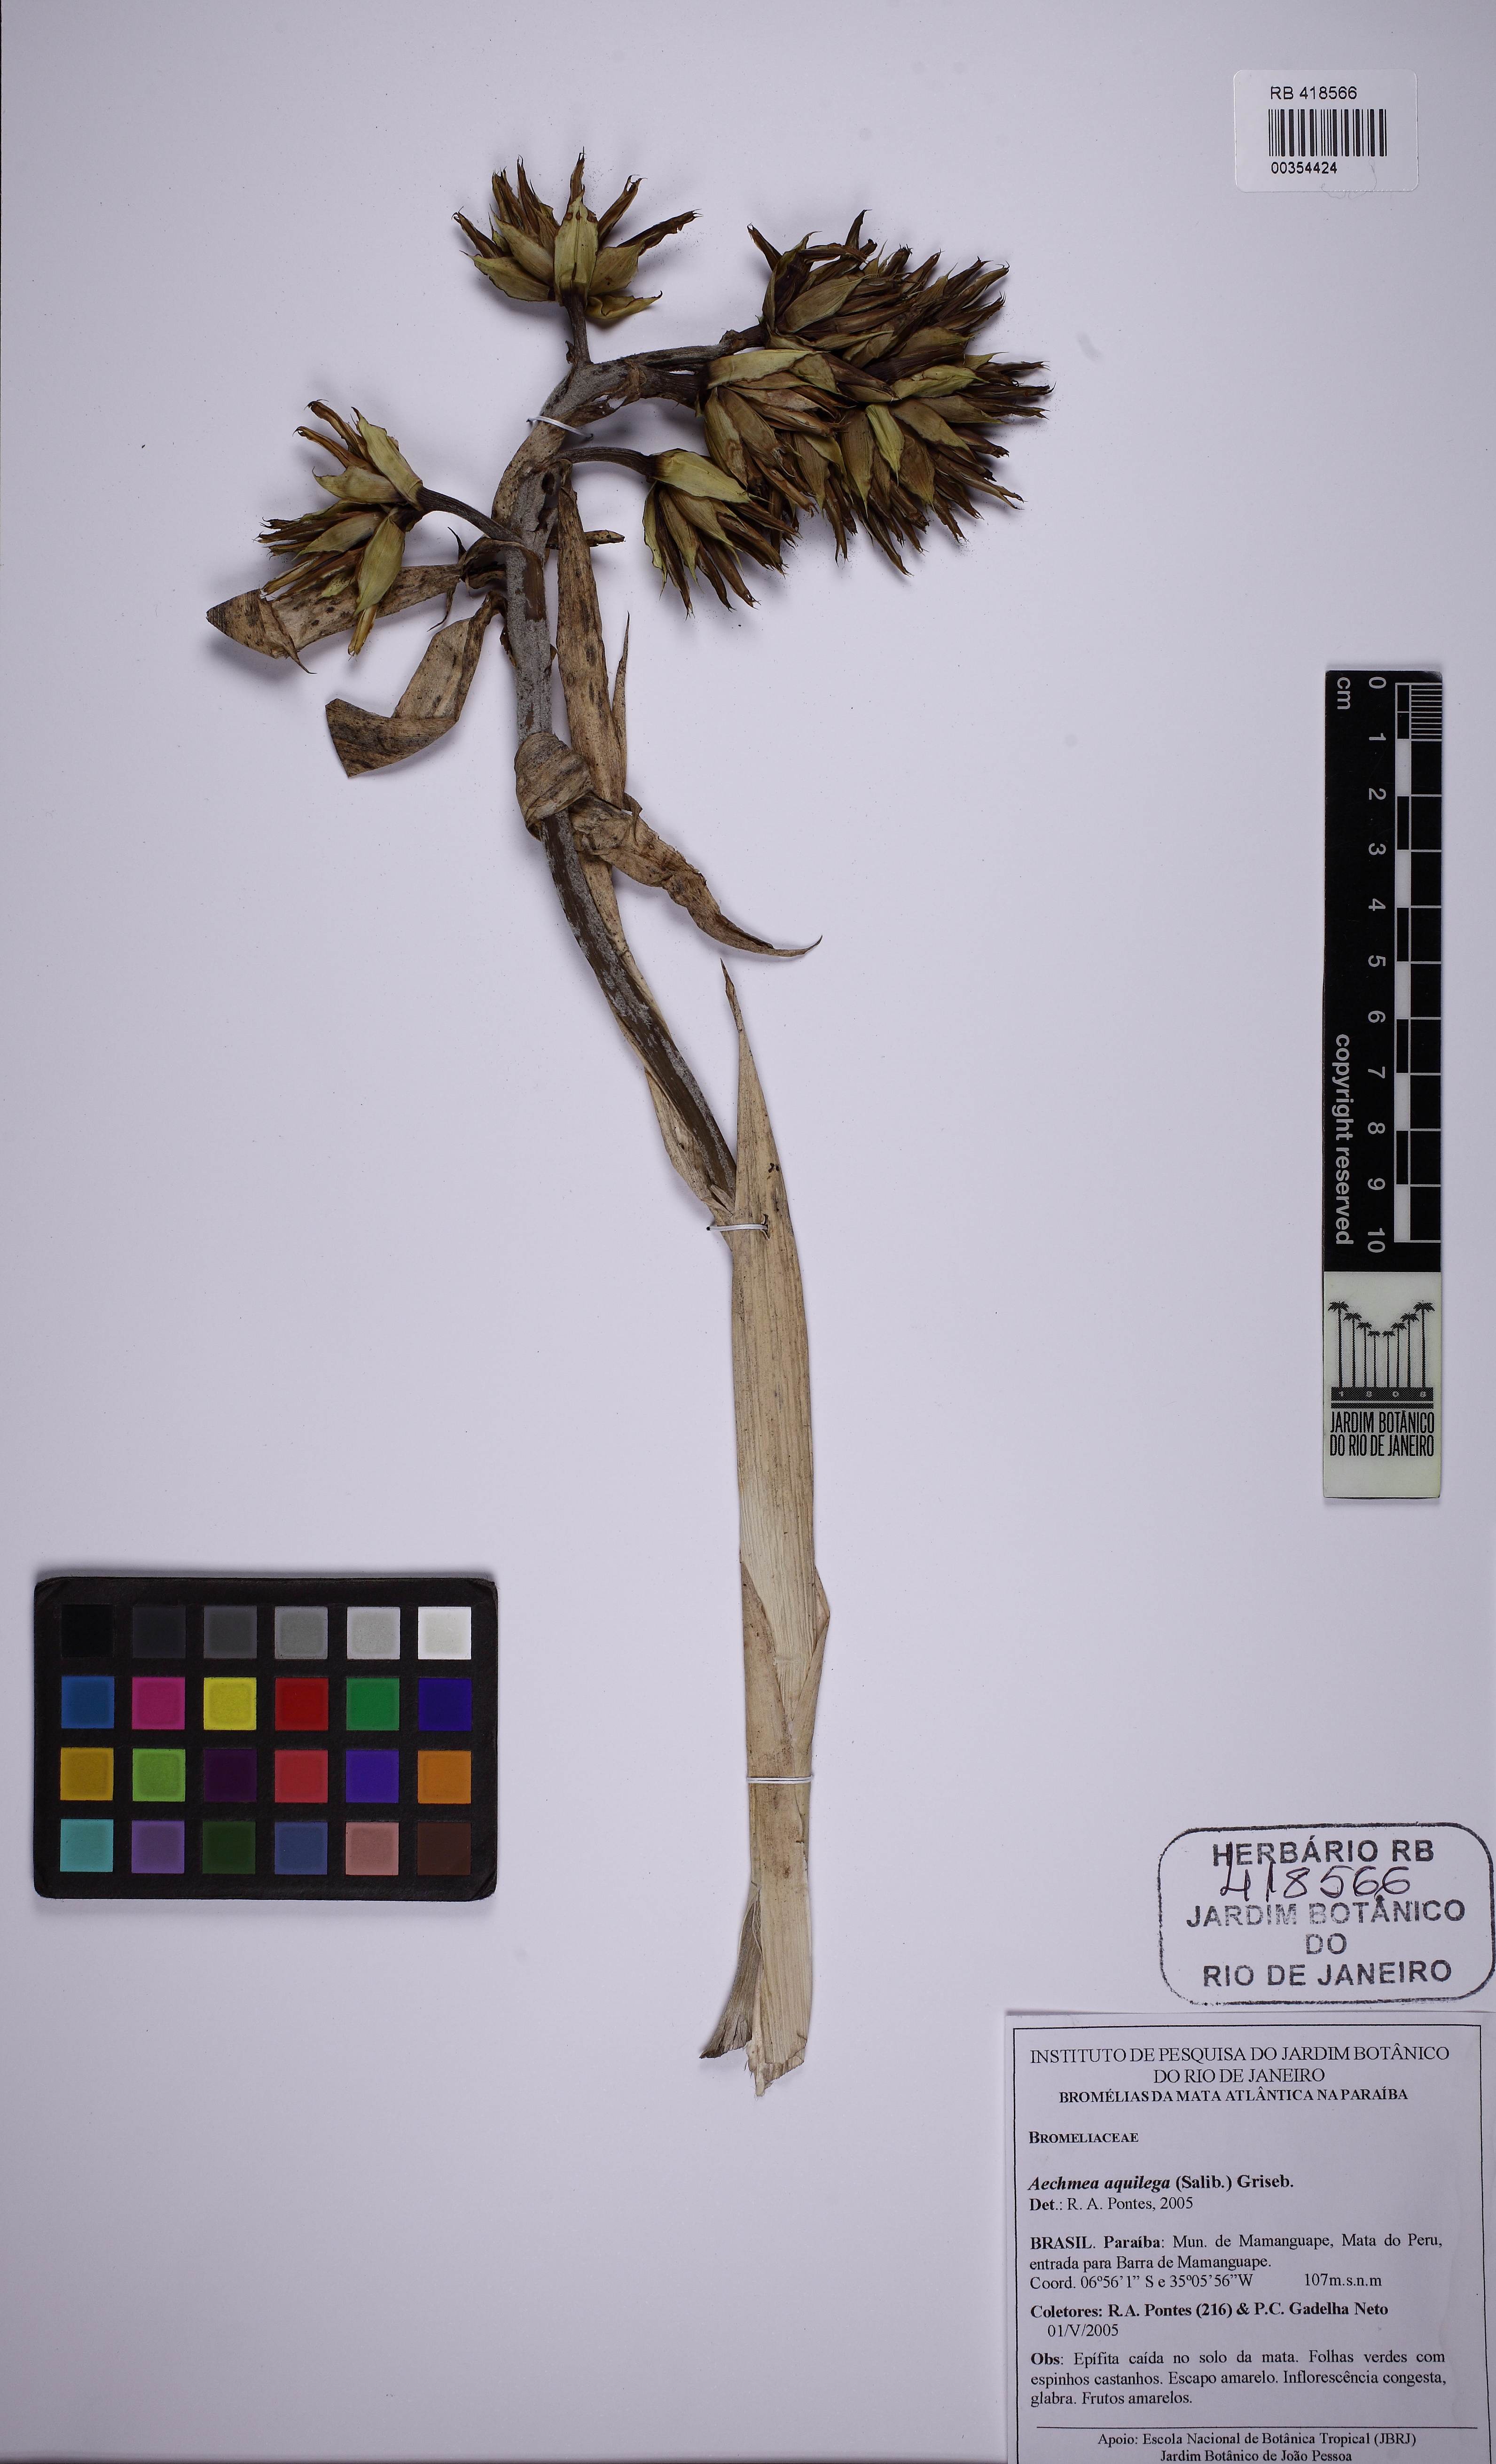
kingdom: Plantae
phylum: Tracheophyta
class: Liliopsida
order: Poales
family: Bromeliaceae
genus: Aechmea
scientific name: Aechmea aquilega
